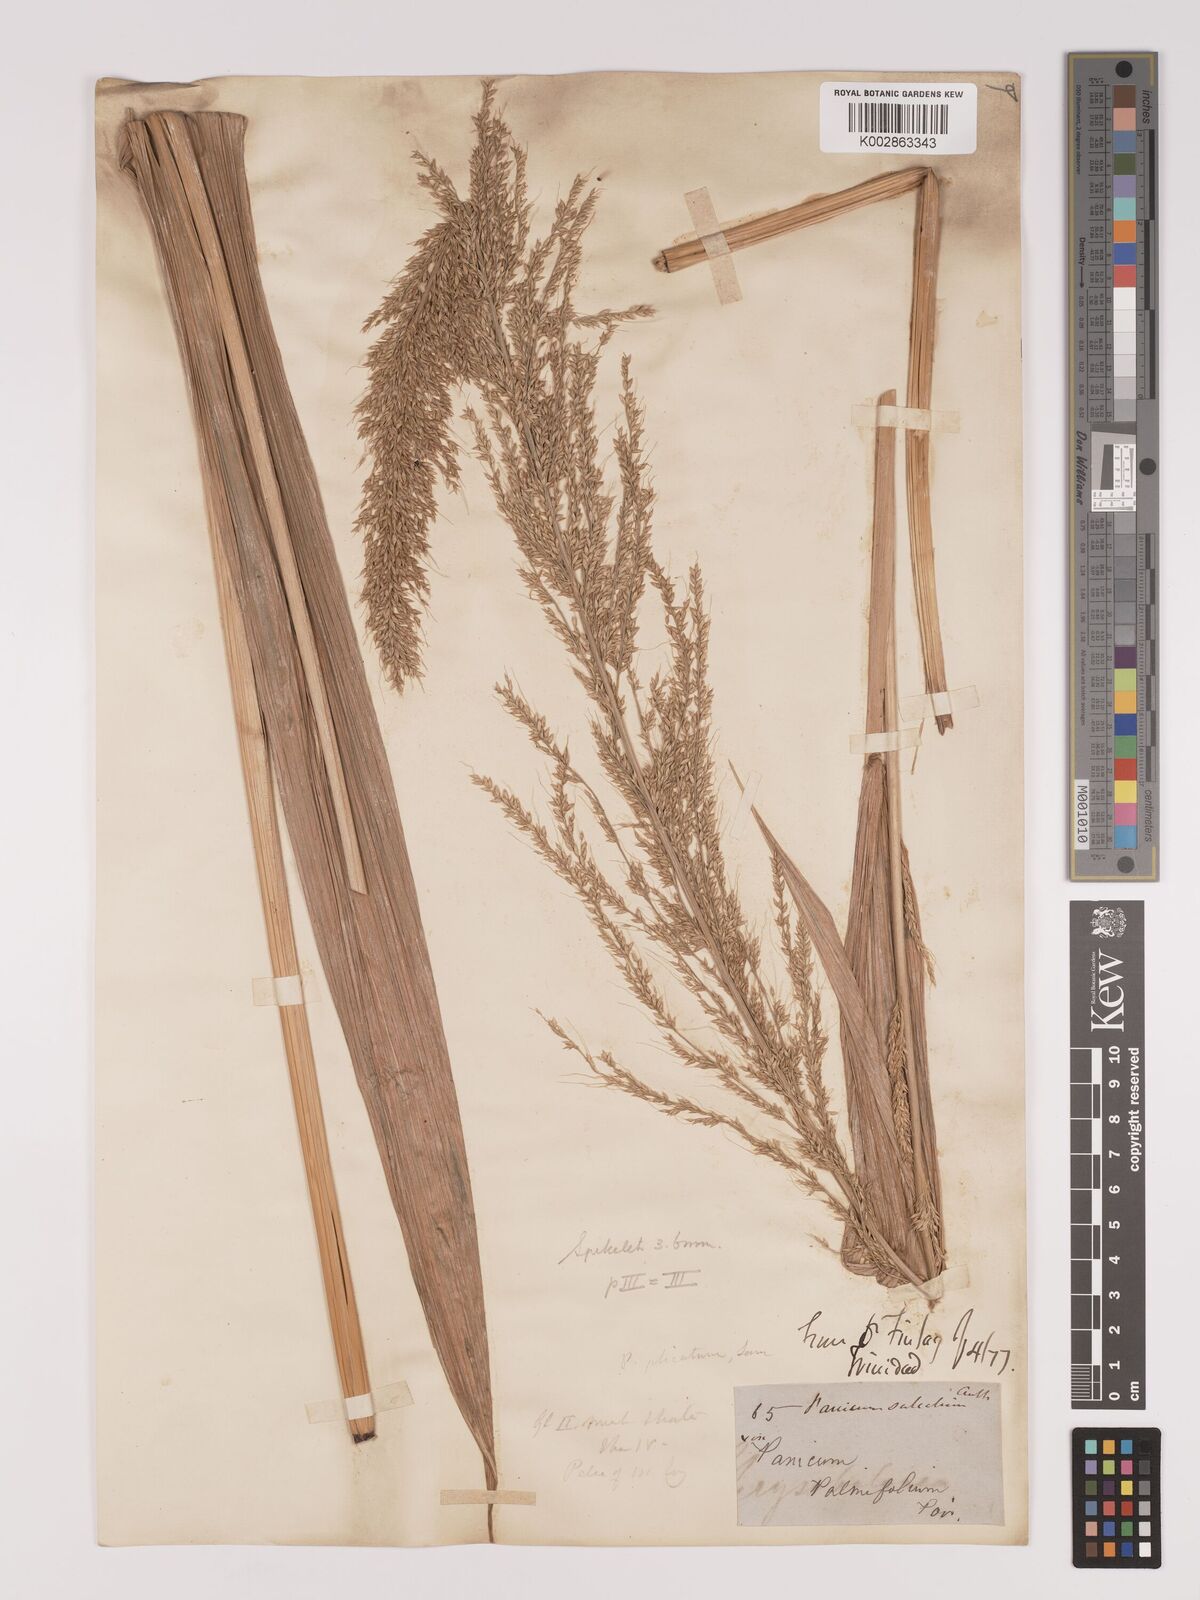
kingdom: Plantae
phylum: Tracheophyta
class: Liliopsida
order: Poales
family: Poaceae
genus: Setaria
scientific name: Setaria palmifolia
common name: Broadleaved bristlegrass
